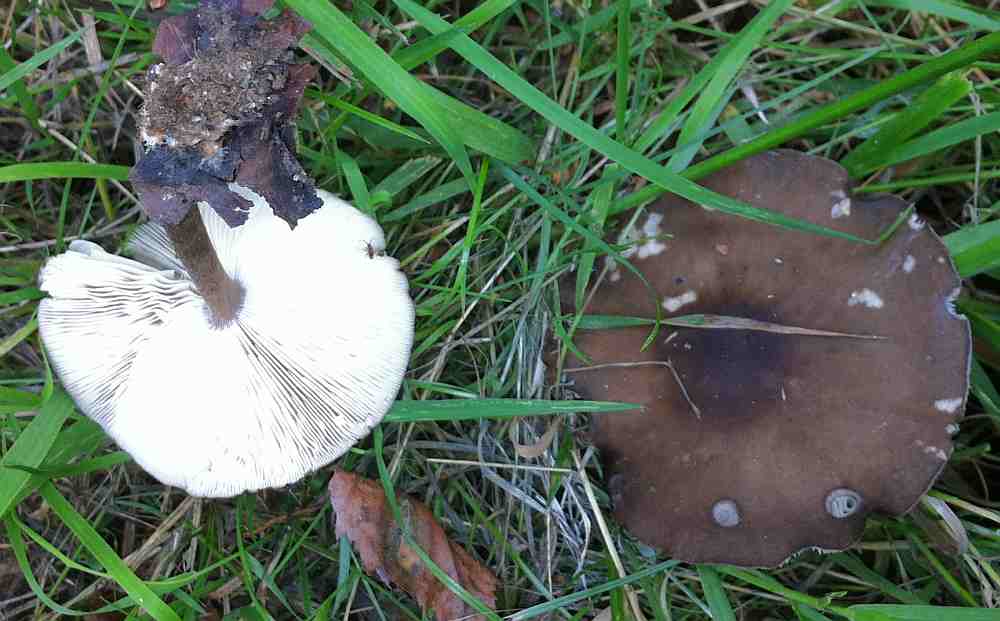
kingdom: Fungi
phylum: Basidiomycota
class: Agaricomycetes
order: Agaricales
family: Tricholomataceae
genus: Melanoleuca
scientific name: Melanoleuca polioleuca
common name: almindelig munkehat
